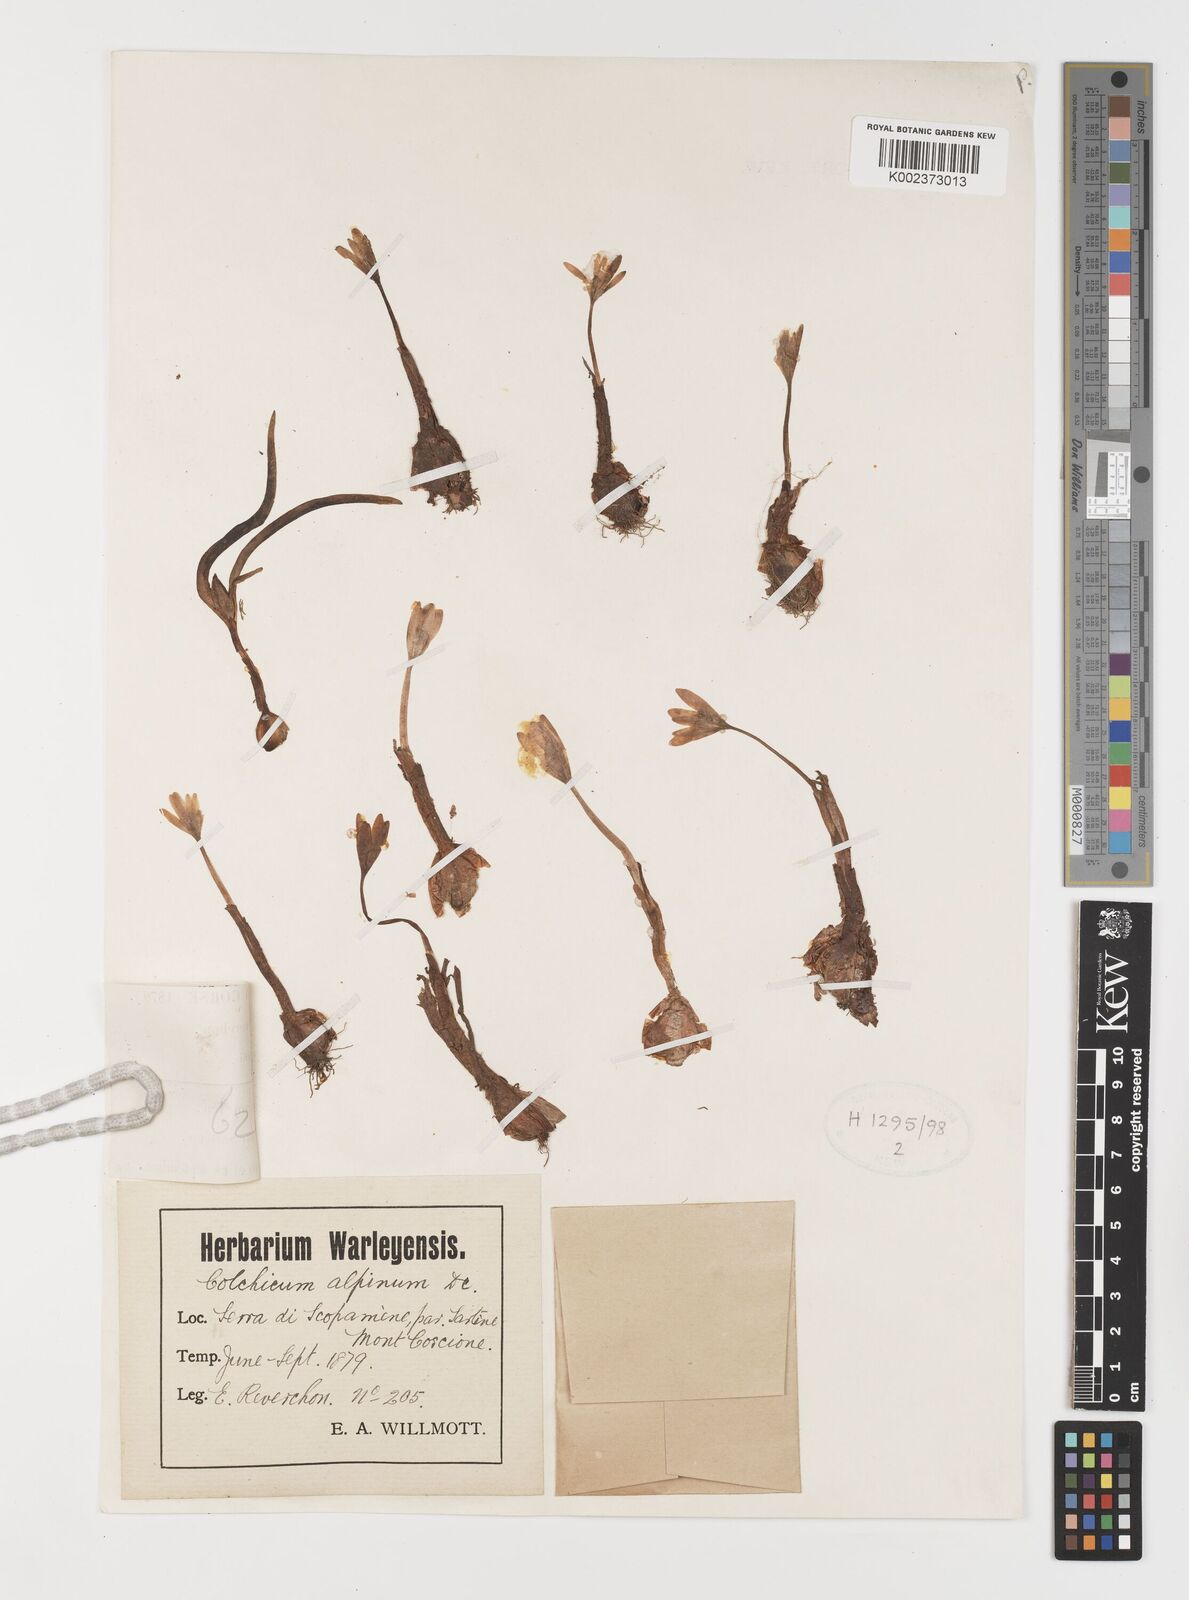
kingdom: Plantae
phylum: Tracheophyta
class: Liliopsida
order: Liliales
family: Colchicaceae
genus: Colchicum
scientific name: Colchicum alpinum
